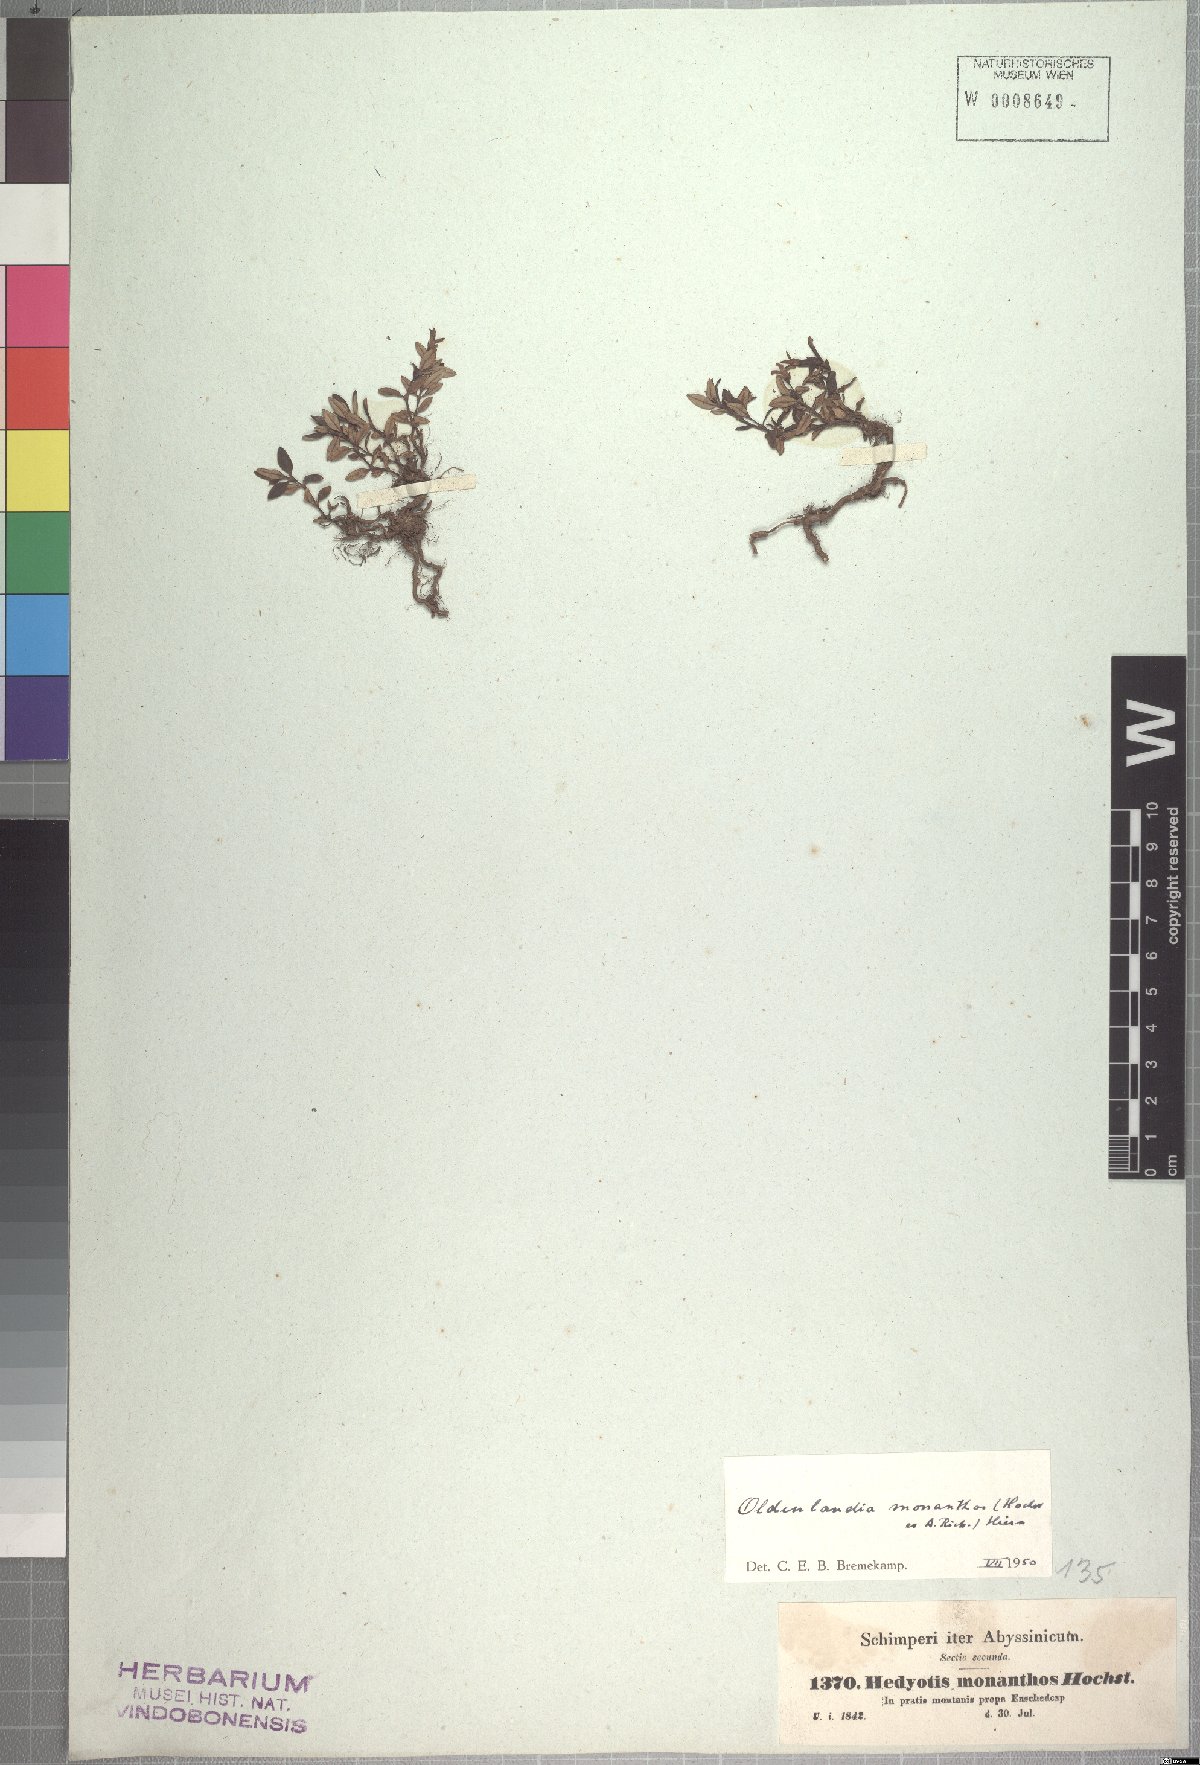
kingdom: Plantae
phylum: Tracheophyta
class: Magnoliopsida
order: Gentianales
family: Rubiaceae
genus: Oldenlandia
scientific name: Oldenlandia monanthos
